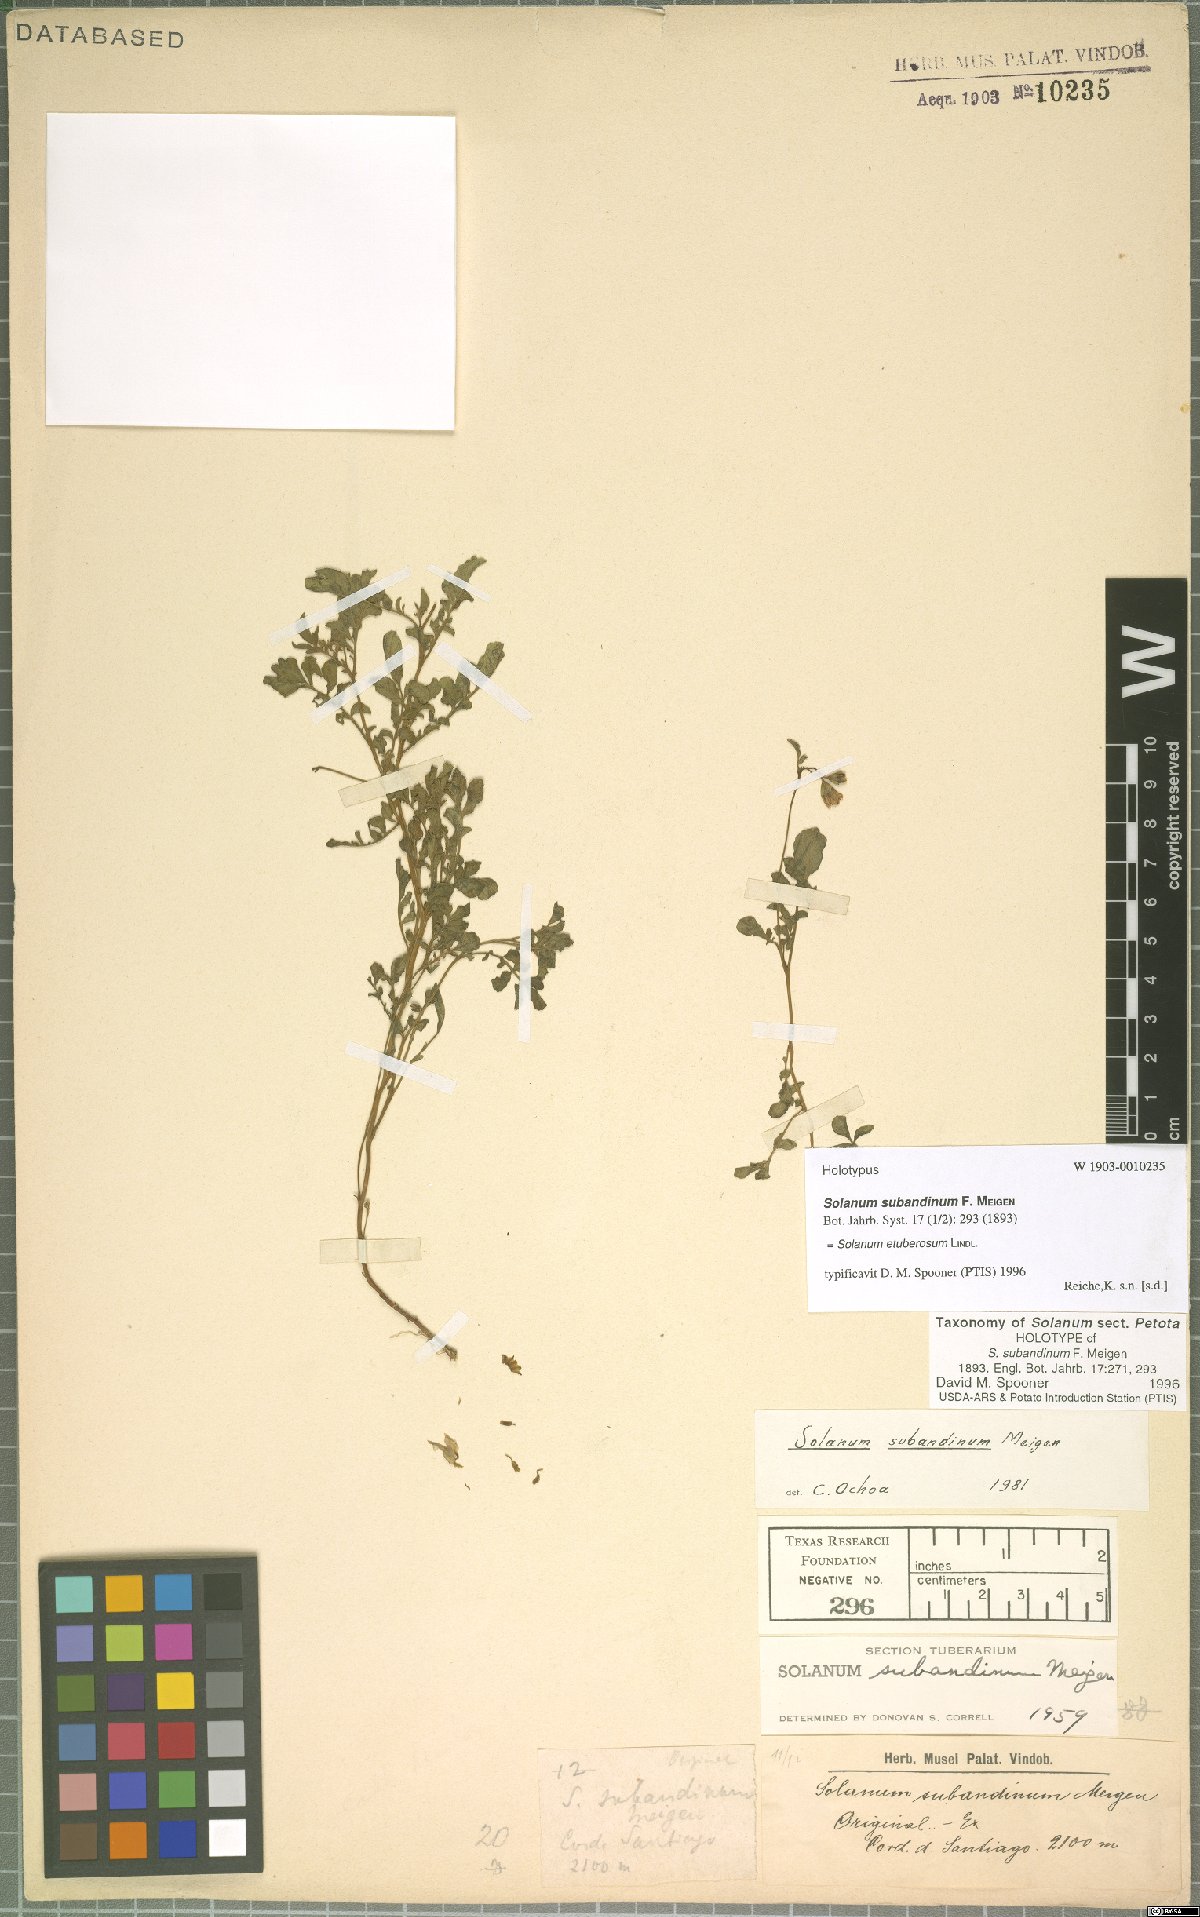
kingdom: Plantae
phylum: Tracheophyta
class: Magnoliopsida
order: Solanales
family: Solanaceae
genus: Solanum
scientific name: Solanum etuberosum
